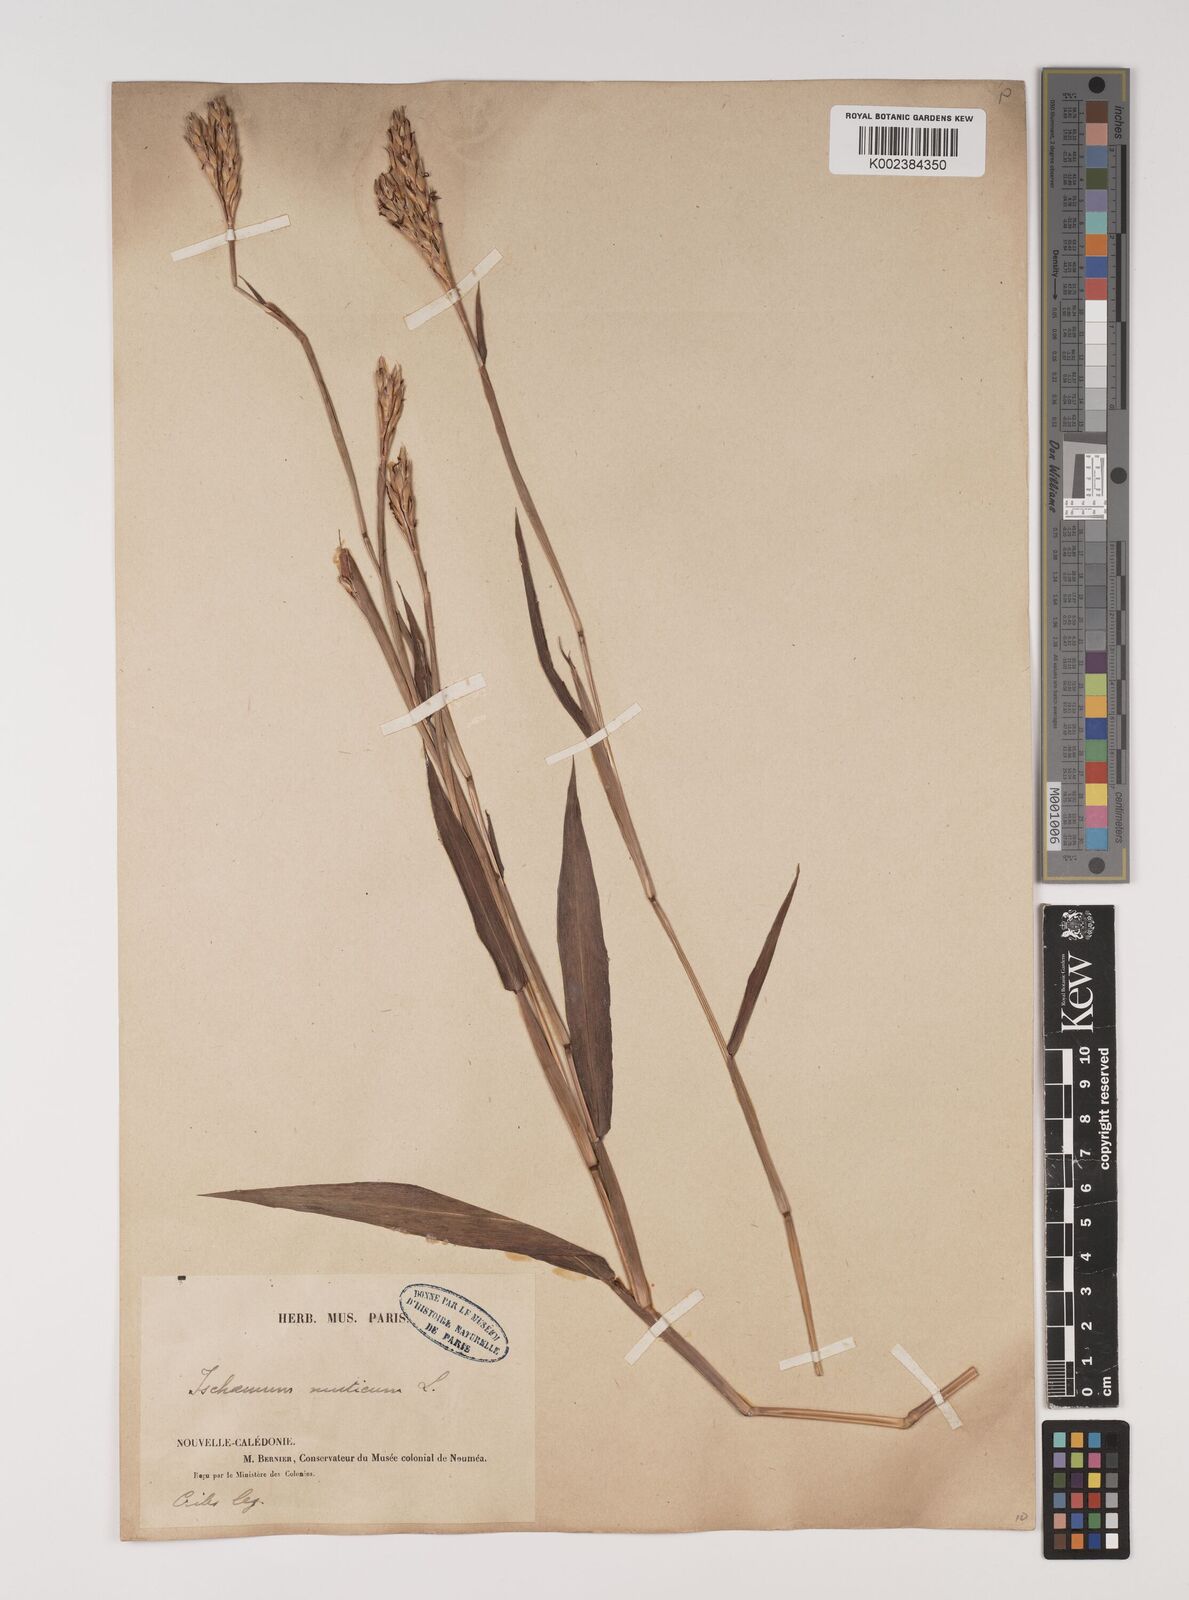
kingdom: Plantae
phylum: Tracheophyta
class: Liliopsida
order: Poales
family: Poaceae
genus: Ischaemum
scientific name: Ischaemum muticum
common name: Drought grass
